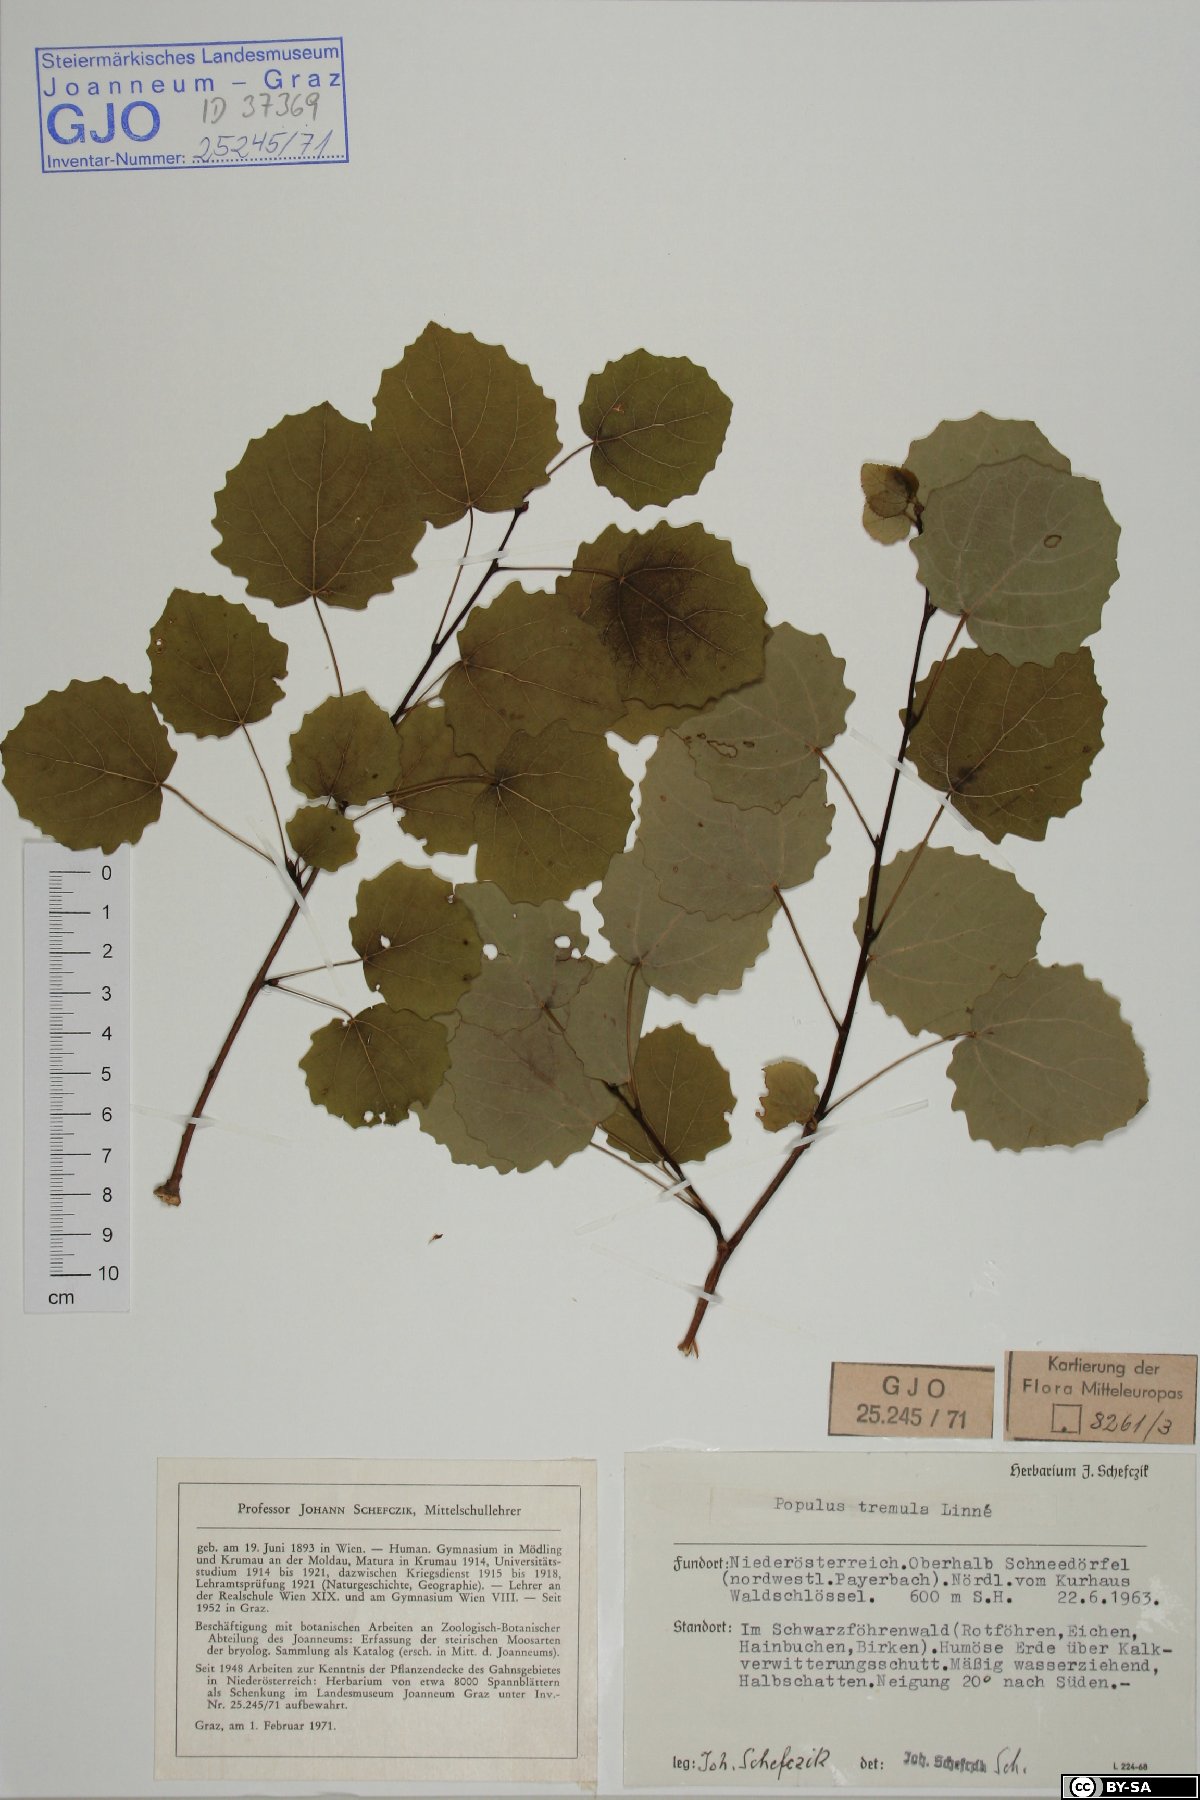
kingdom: Plantae
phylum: Tracheophyta
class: Magnoliopsida
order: Malpighiales
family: Salicaceae
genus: Populus
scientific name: Populus tremula
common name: European aspen
